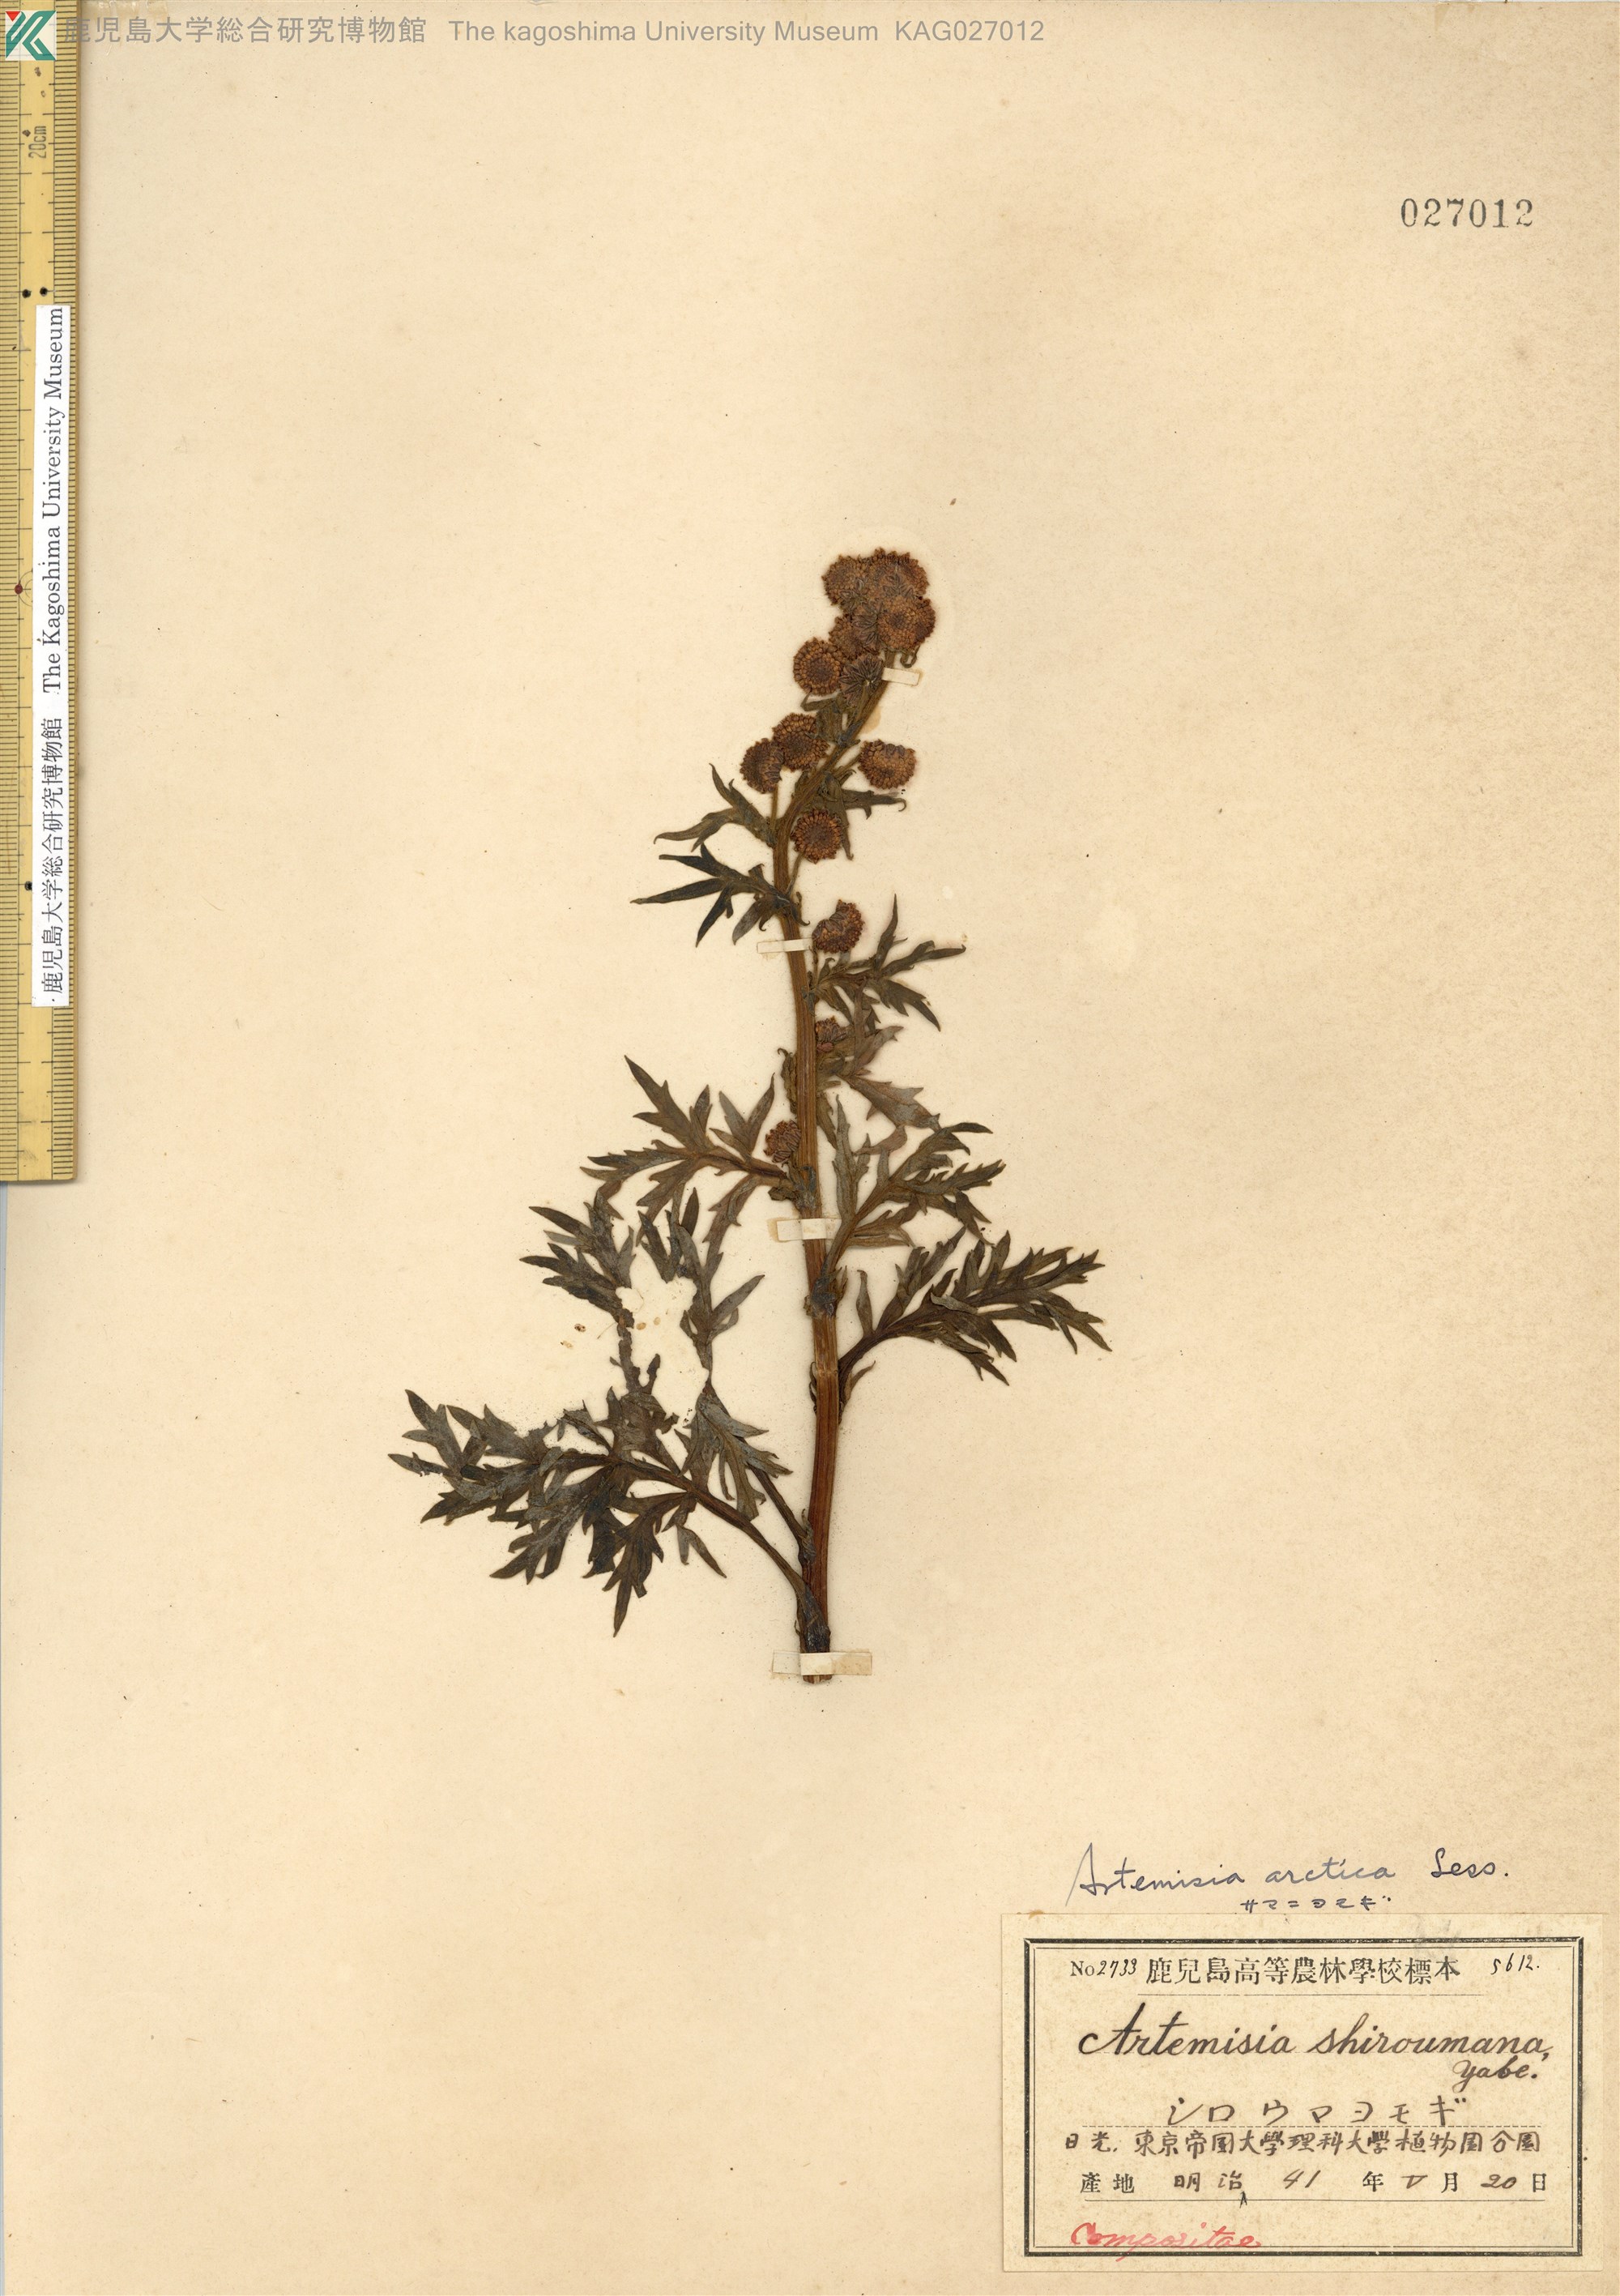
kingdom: Plantae
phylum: Tracheophyta
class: Magnoliopsida
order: Asterales
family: Asteraceae
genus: Artemisia
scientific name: Artemisia arctica
